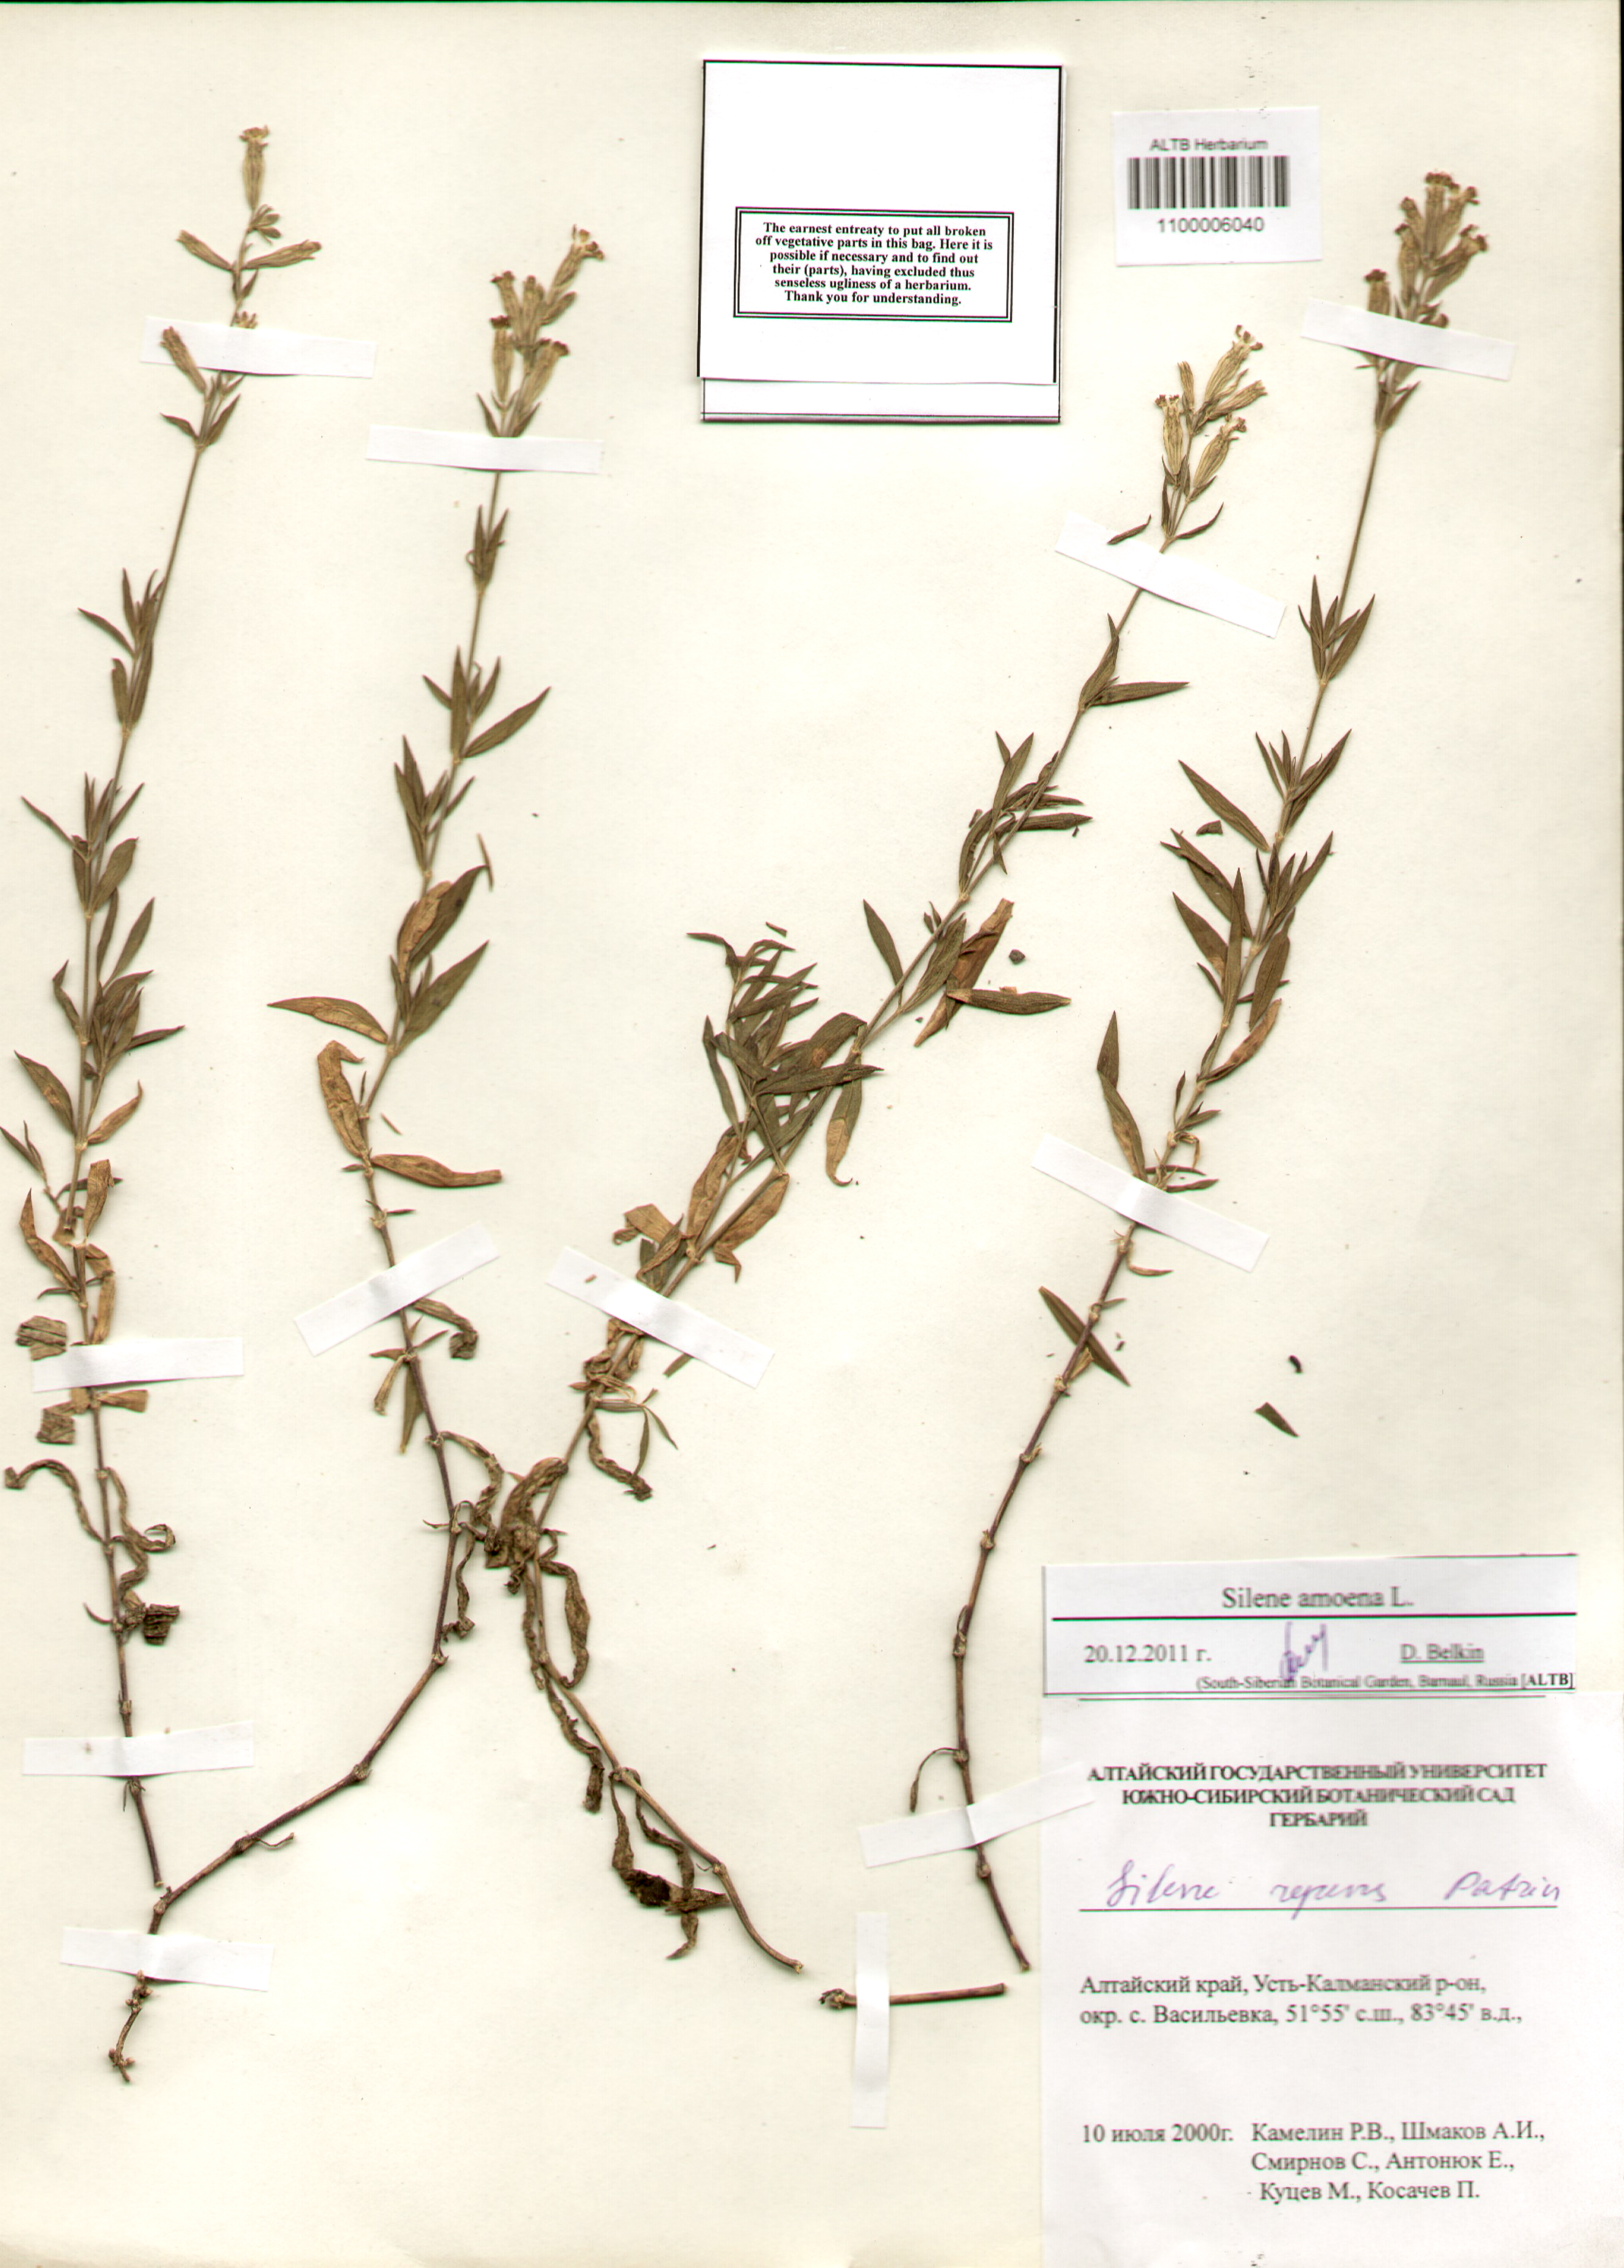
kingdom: Plantae
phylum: Tracheophyta
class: Magnoliopsida
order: Caryophyllales
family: Caryophyllaceae
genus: Silene
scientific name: Silene amoena
